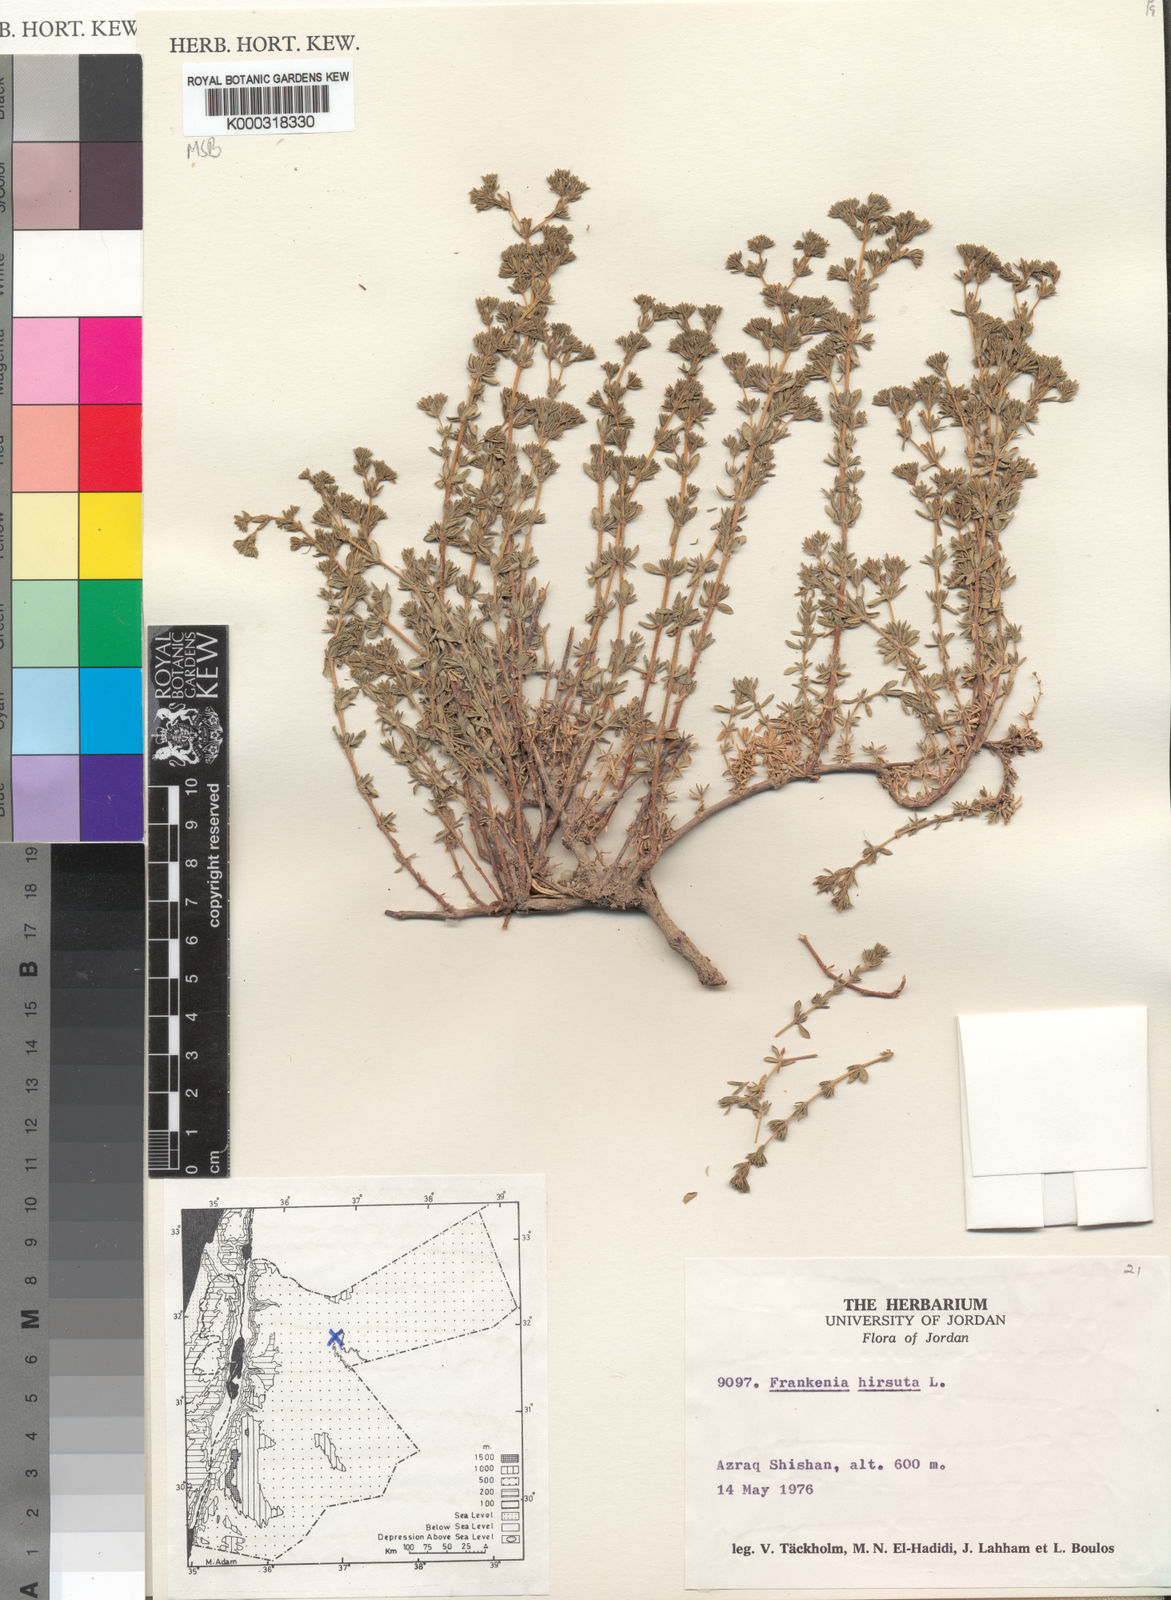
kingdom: Plantae
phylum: Tracheophyta
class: Magnoliopsida
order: Caryophyllales
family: Frankeniaceae
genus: Frankenia
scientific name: Frankenia hirsuta
